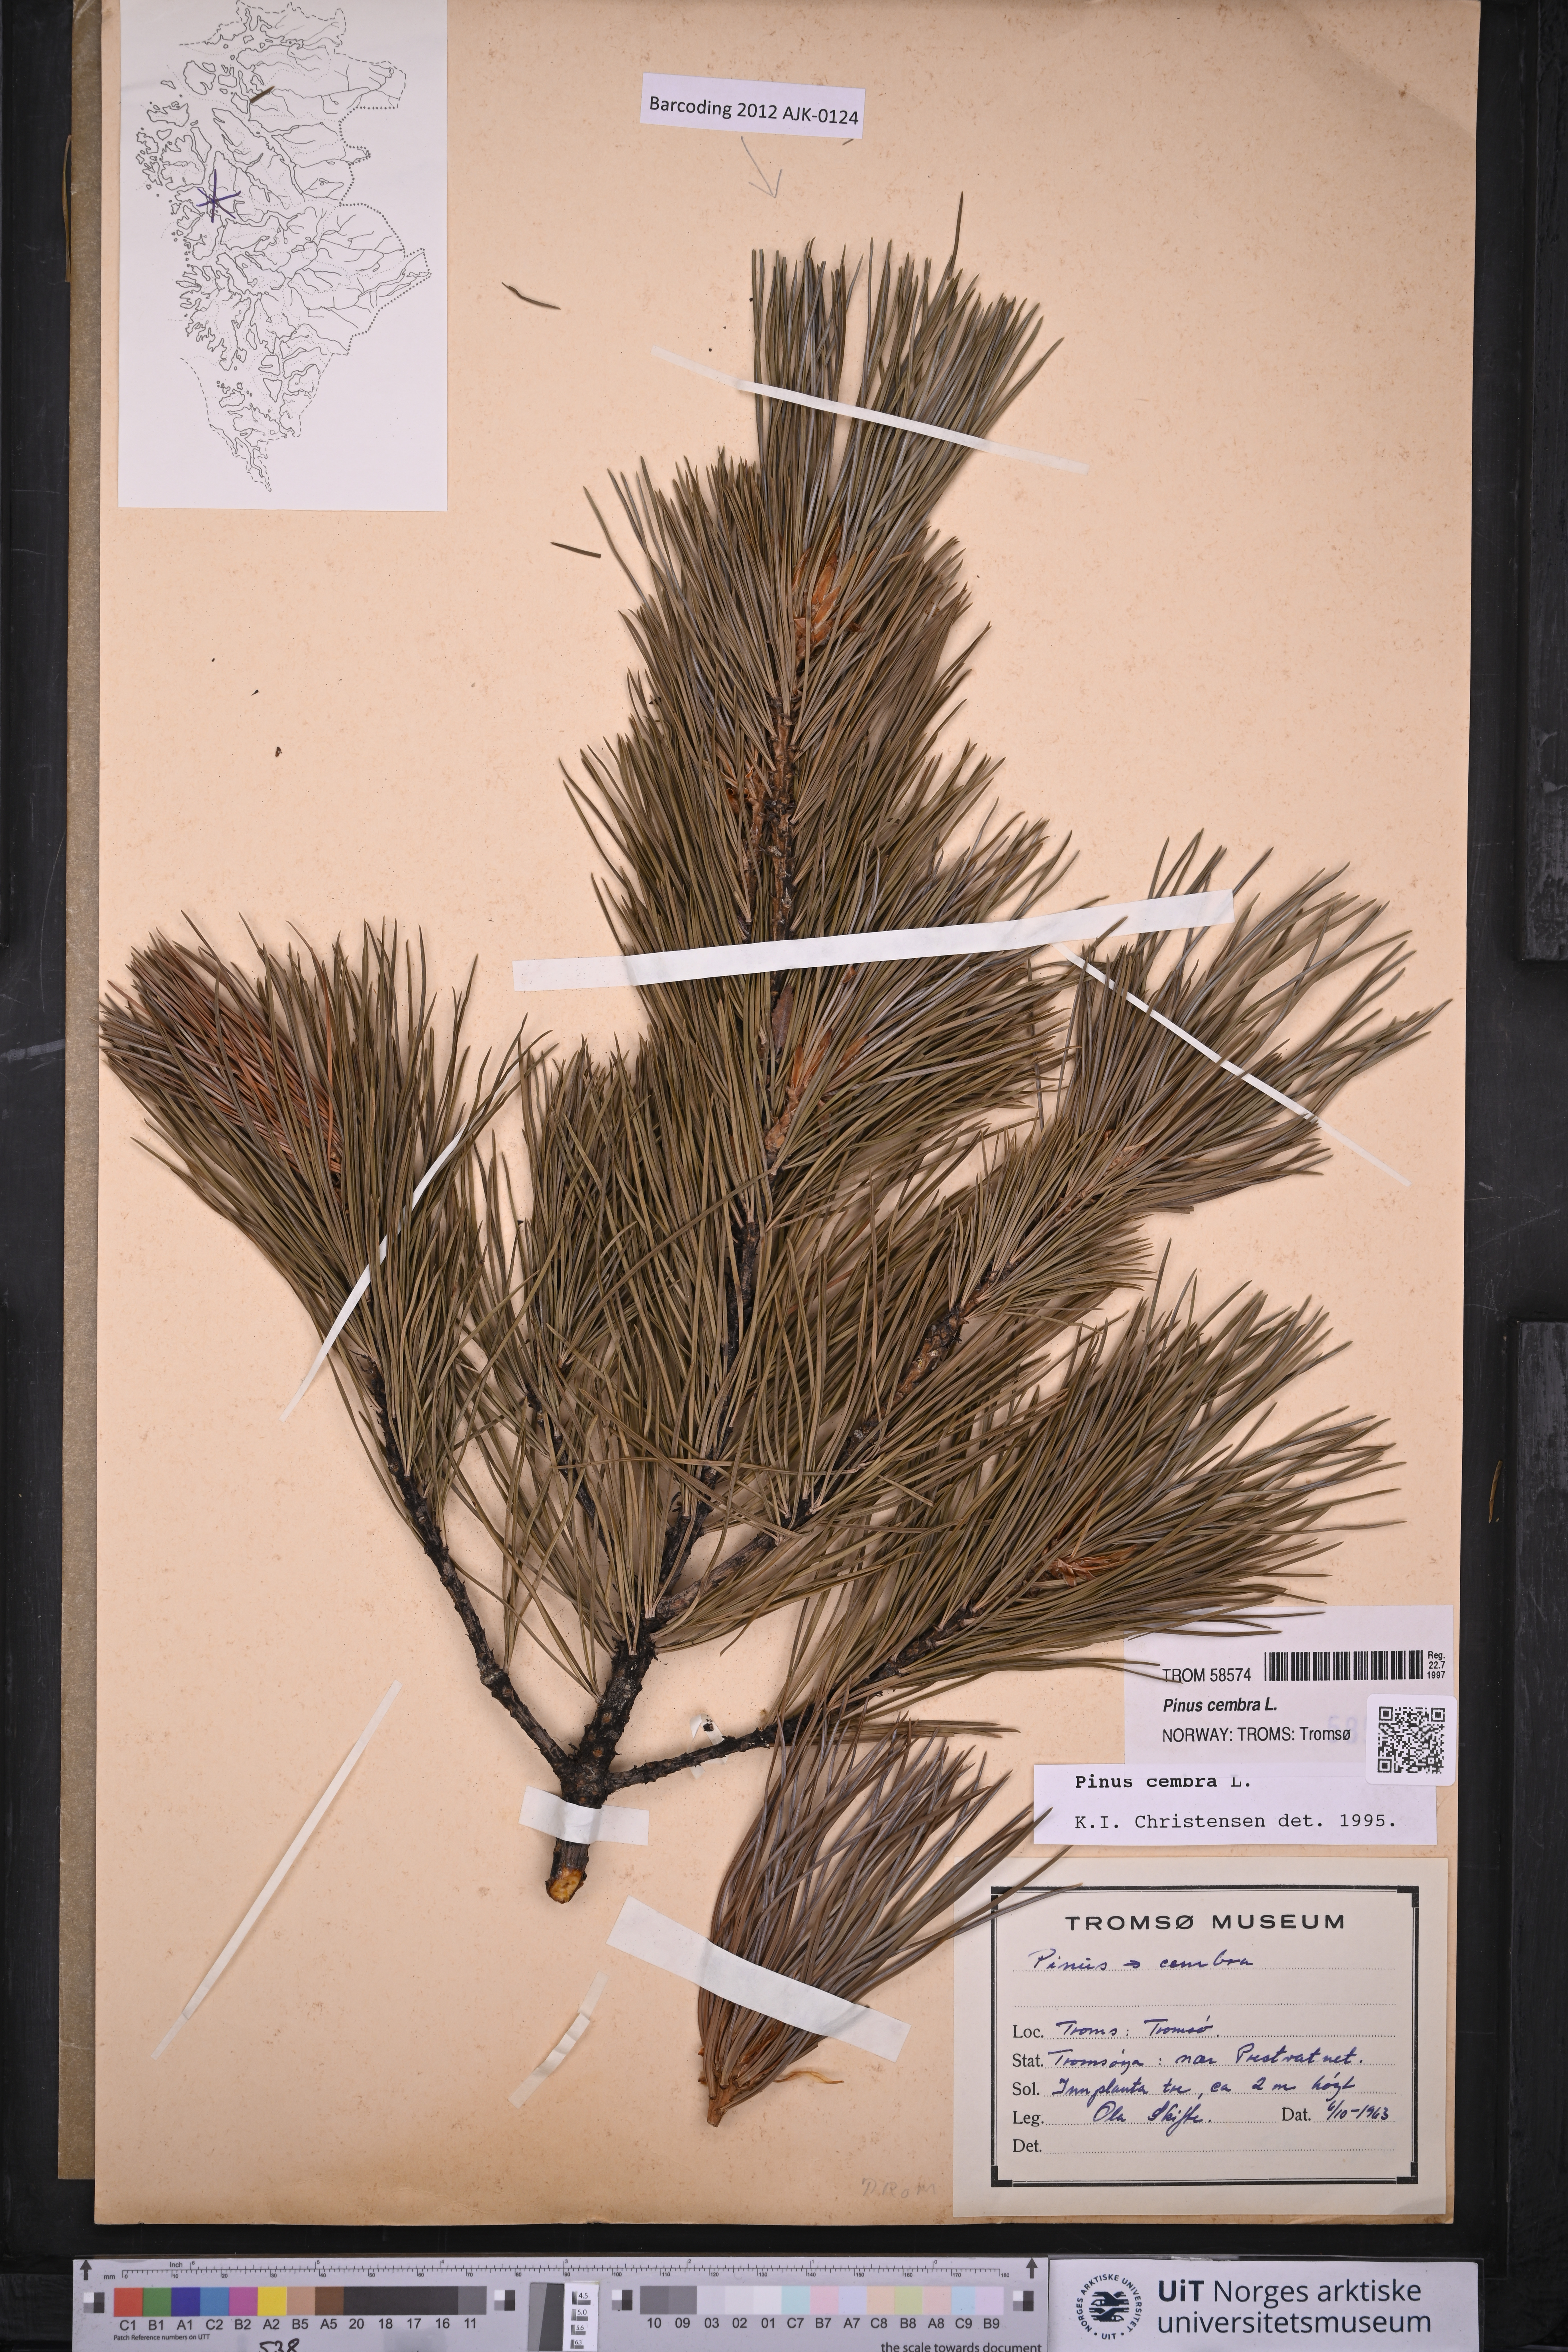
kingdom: Plantae
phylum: Tracheophyta
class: Pinopsida
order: Pinales
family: Pinaceae
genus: Pinus
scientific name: Pinus cembra
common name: Arolla pine
